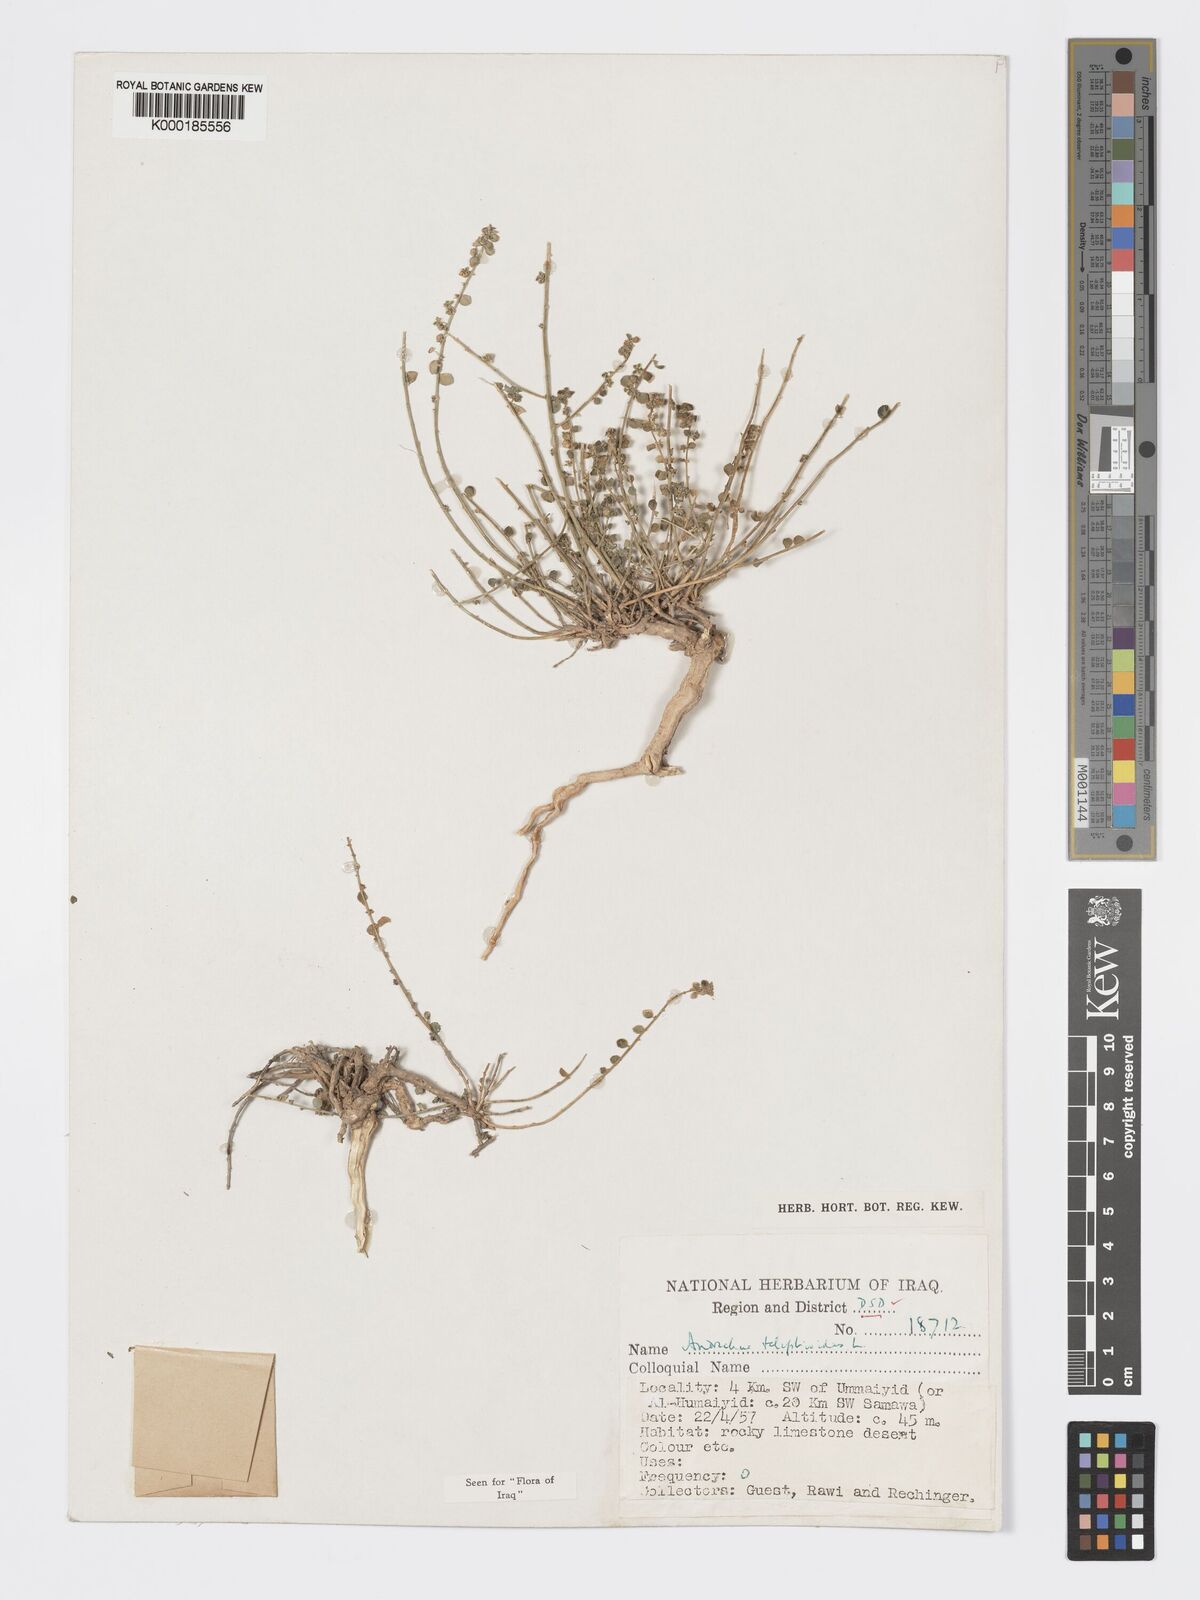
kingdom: Plantae
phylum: Tracheophyta
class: Magnoliopsida
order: Malpighiales
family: Phyllanthaceae
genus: Andrachne
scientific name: Andrachne telephioides
